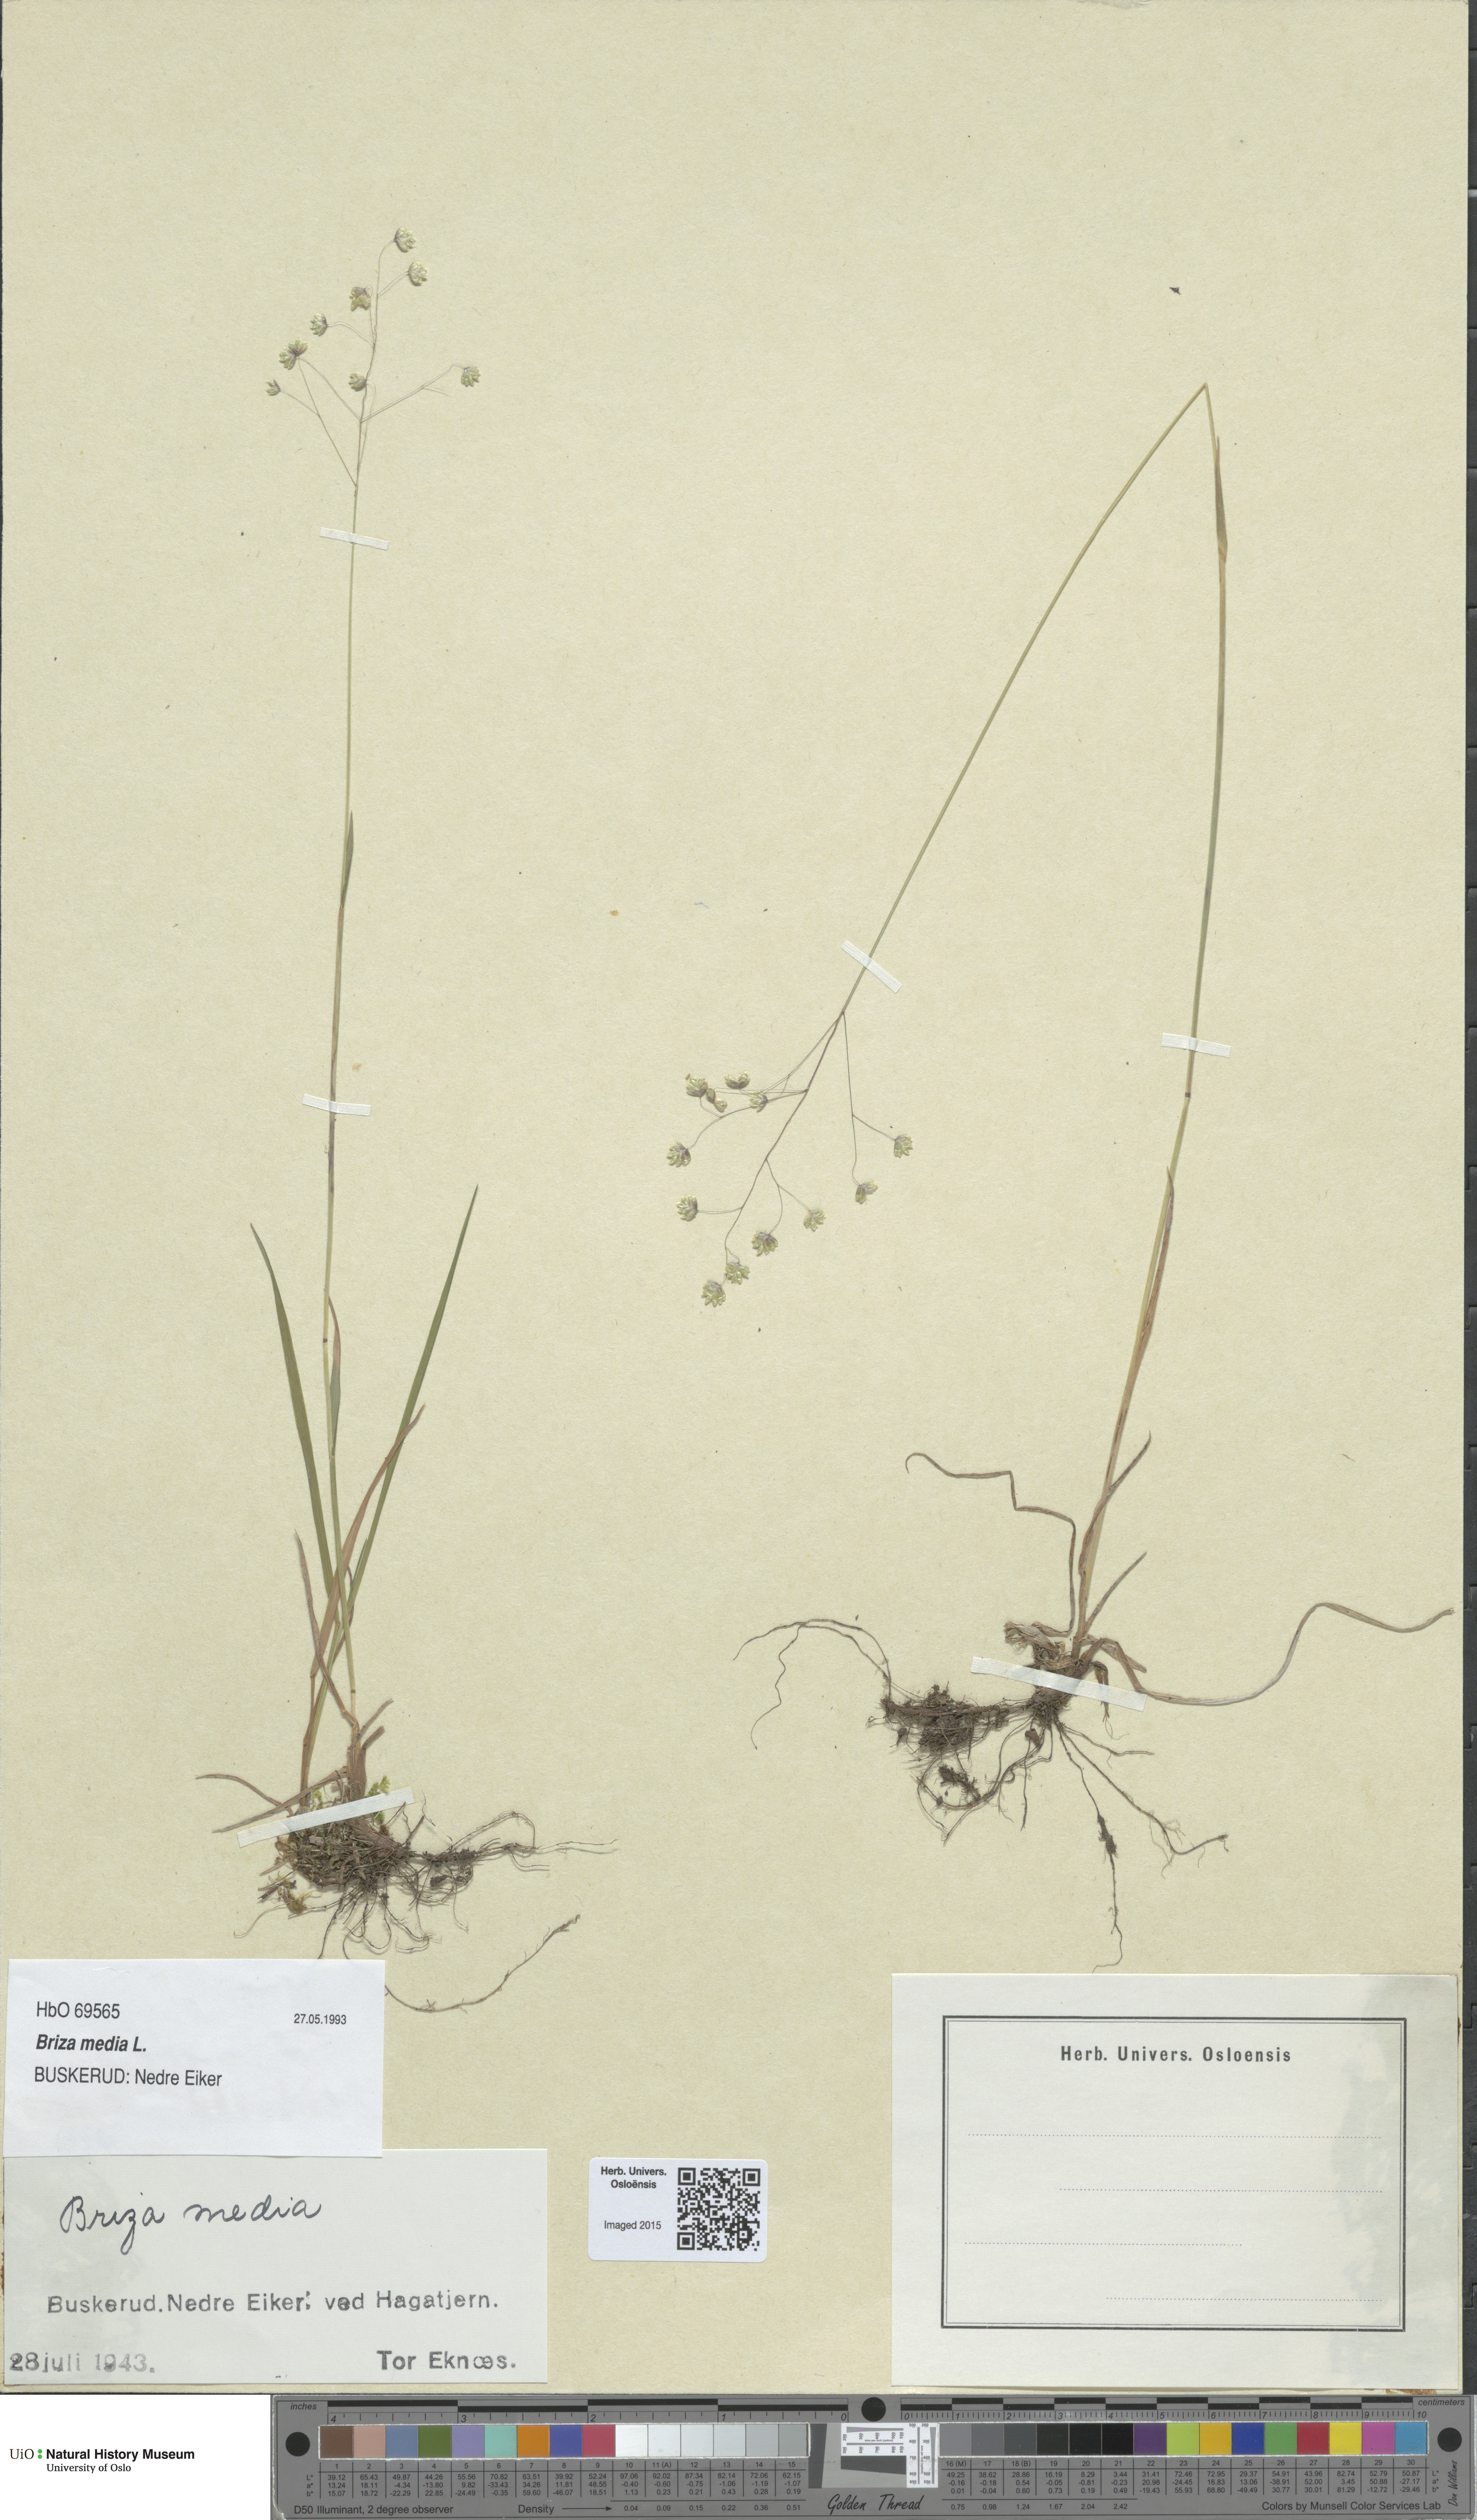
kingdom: Plantae
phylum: Tracheophyta
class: Liliopsida
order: Poales
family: Poaceae
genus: Briza
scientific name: Briza media
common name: Quaking grass
